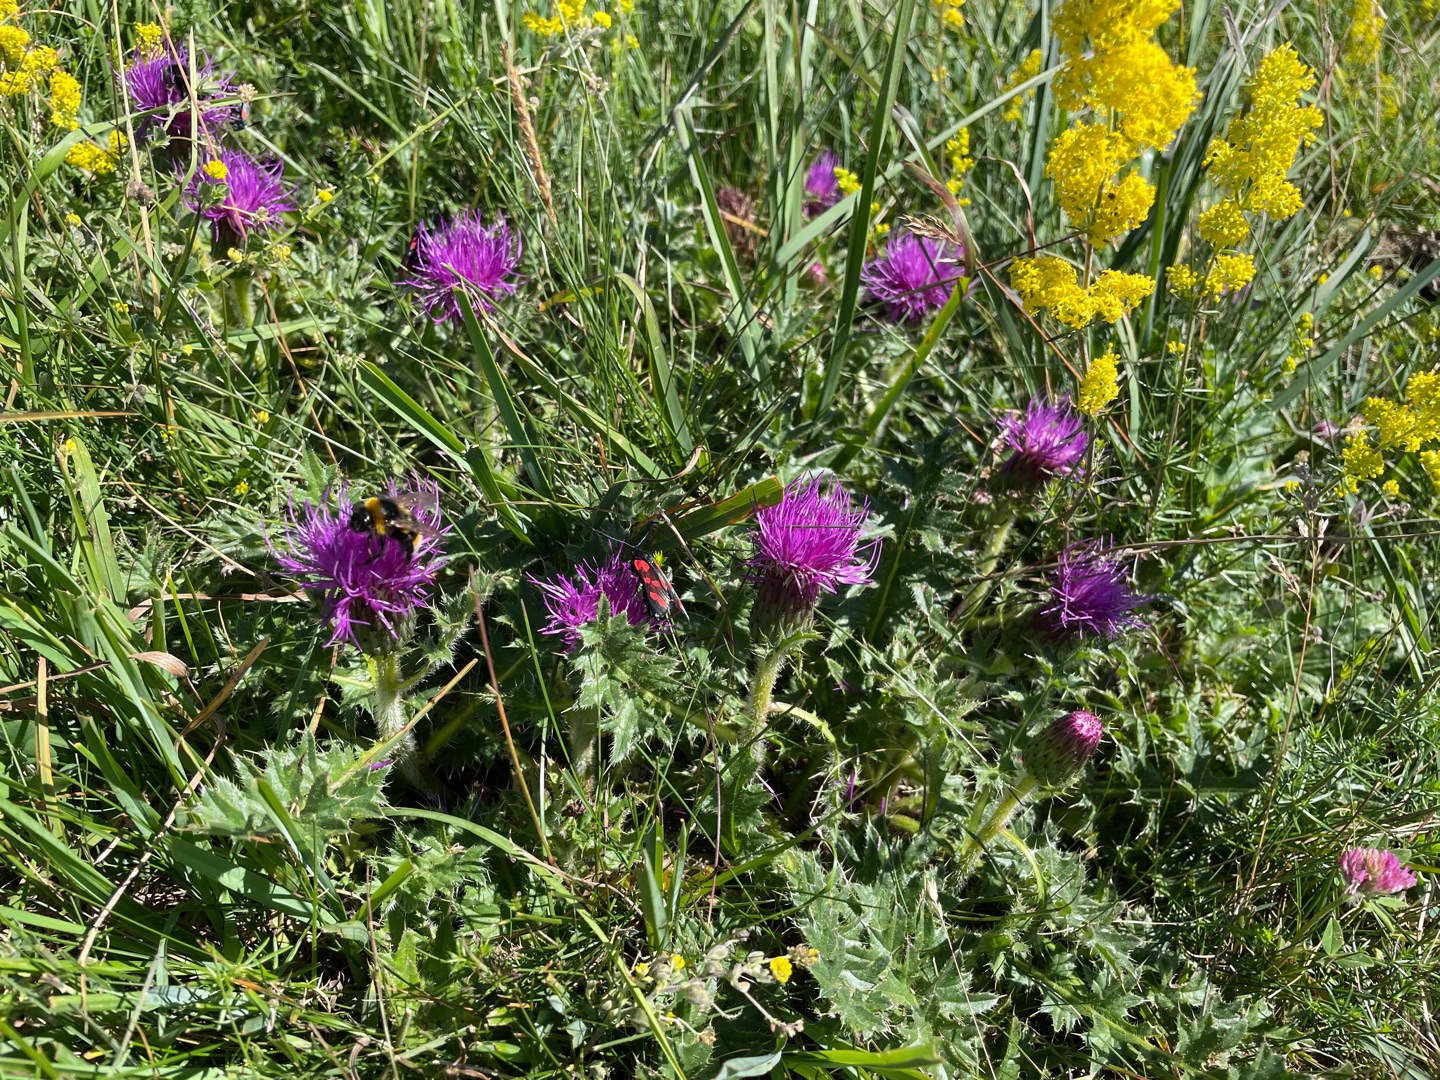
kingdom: Plantae
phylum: Tracheophyta
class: Magnoliopsida
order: Asterales
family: Asteraceae
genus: Cirsium
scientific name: Cirsium acaule
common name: Lav tidsel
